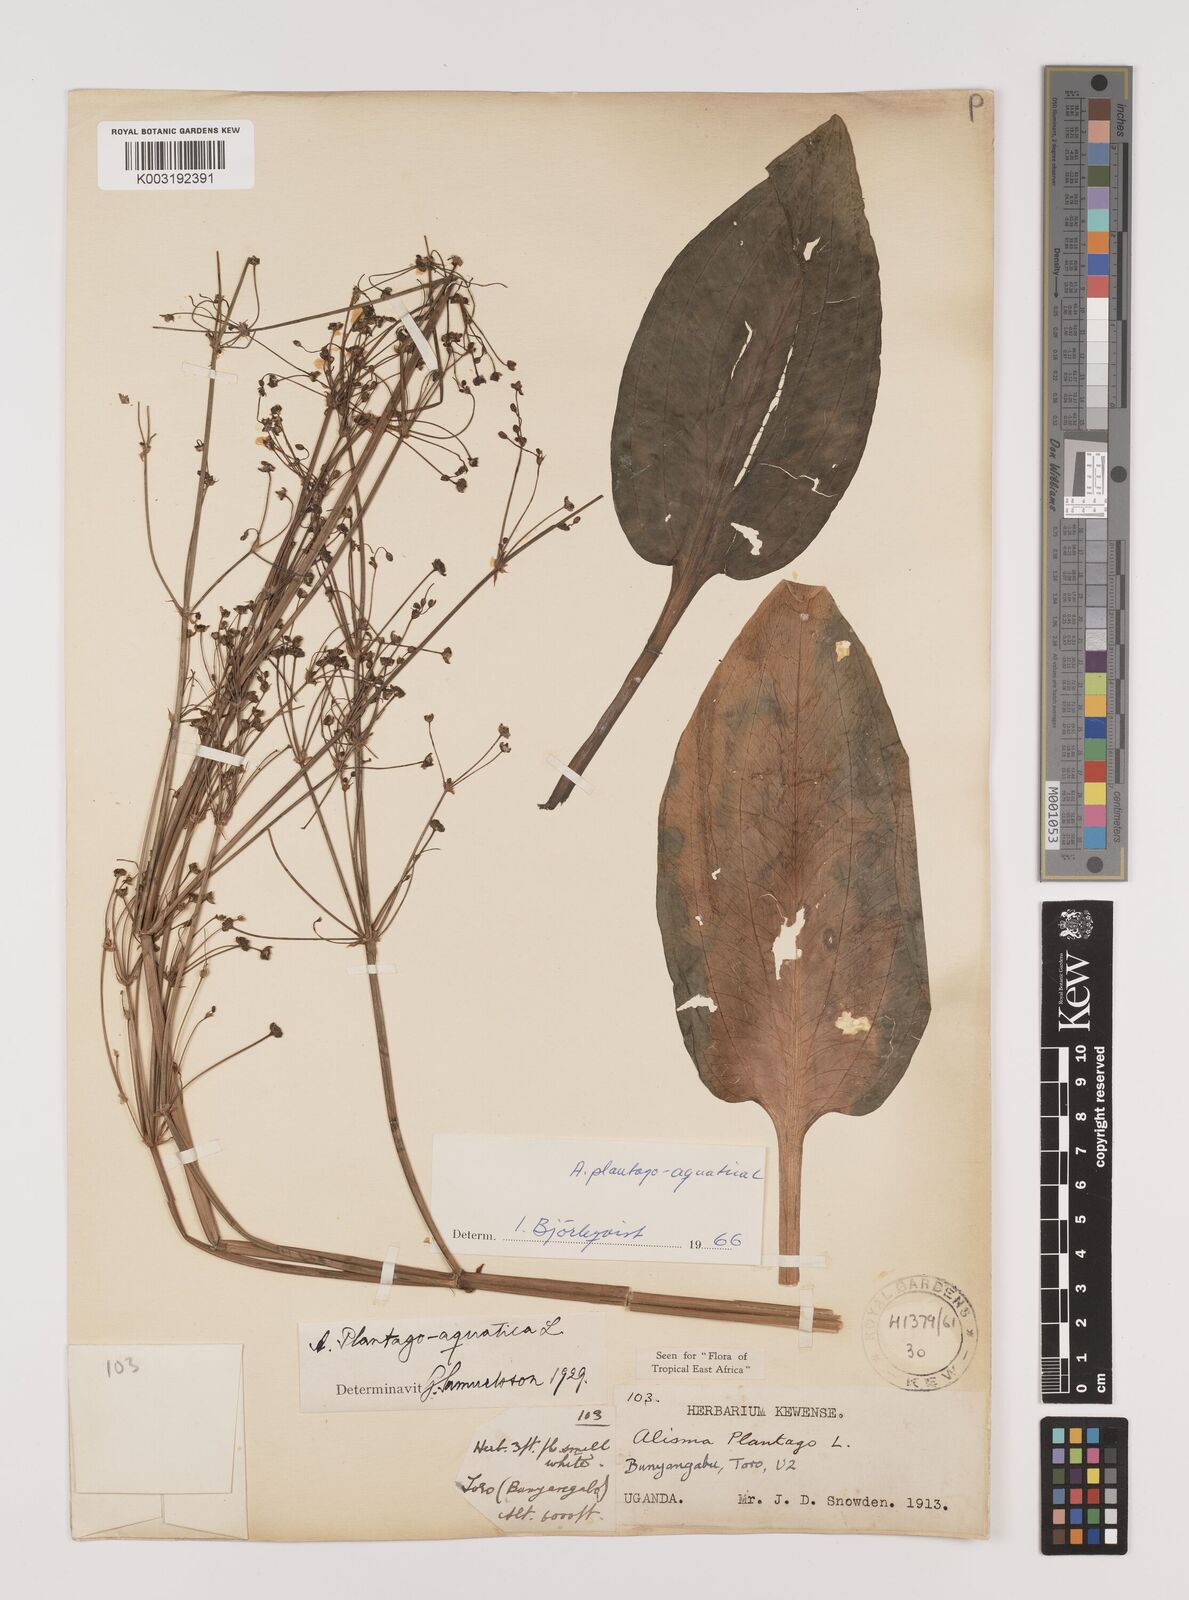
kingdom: Plantae
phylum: Tracheophyta
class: Liliopsida
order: Alismatales
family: Alismataceae
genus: Alisma
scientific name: Alisma plantago-aquatica
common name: Water-plantain
